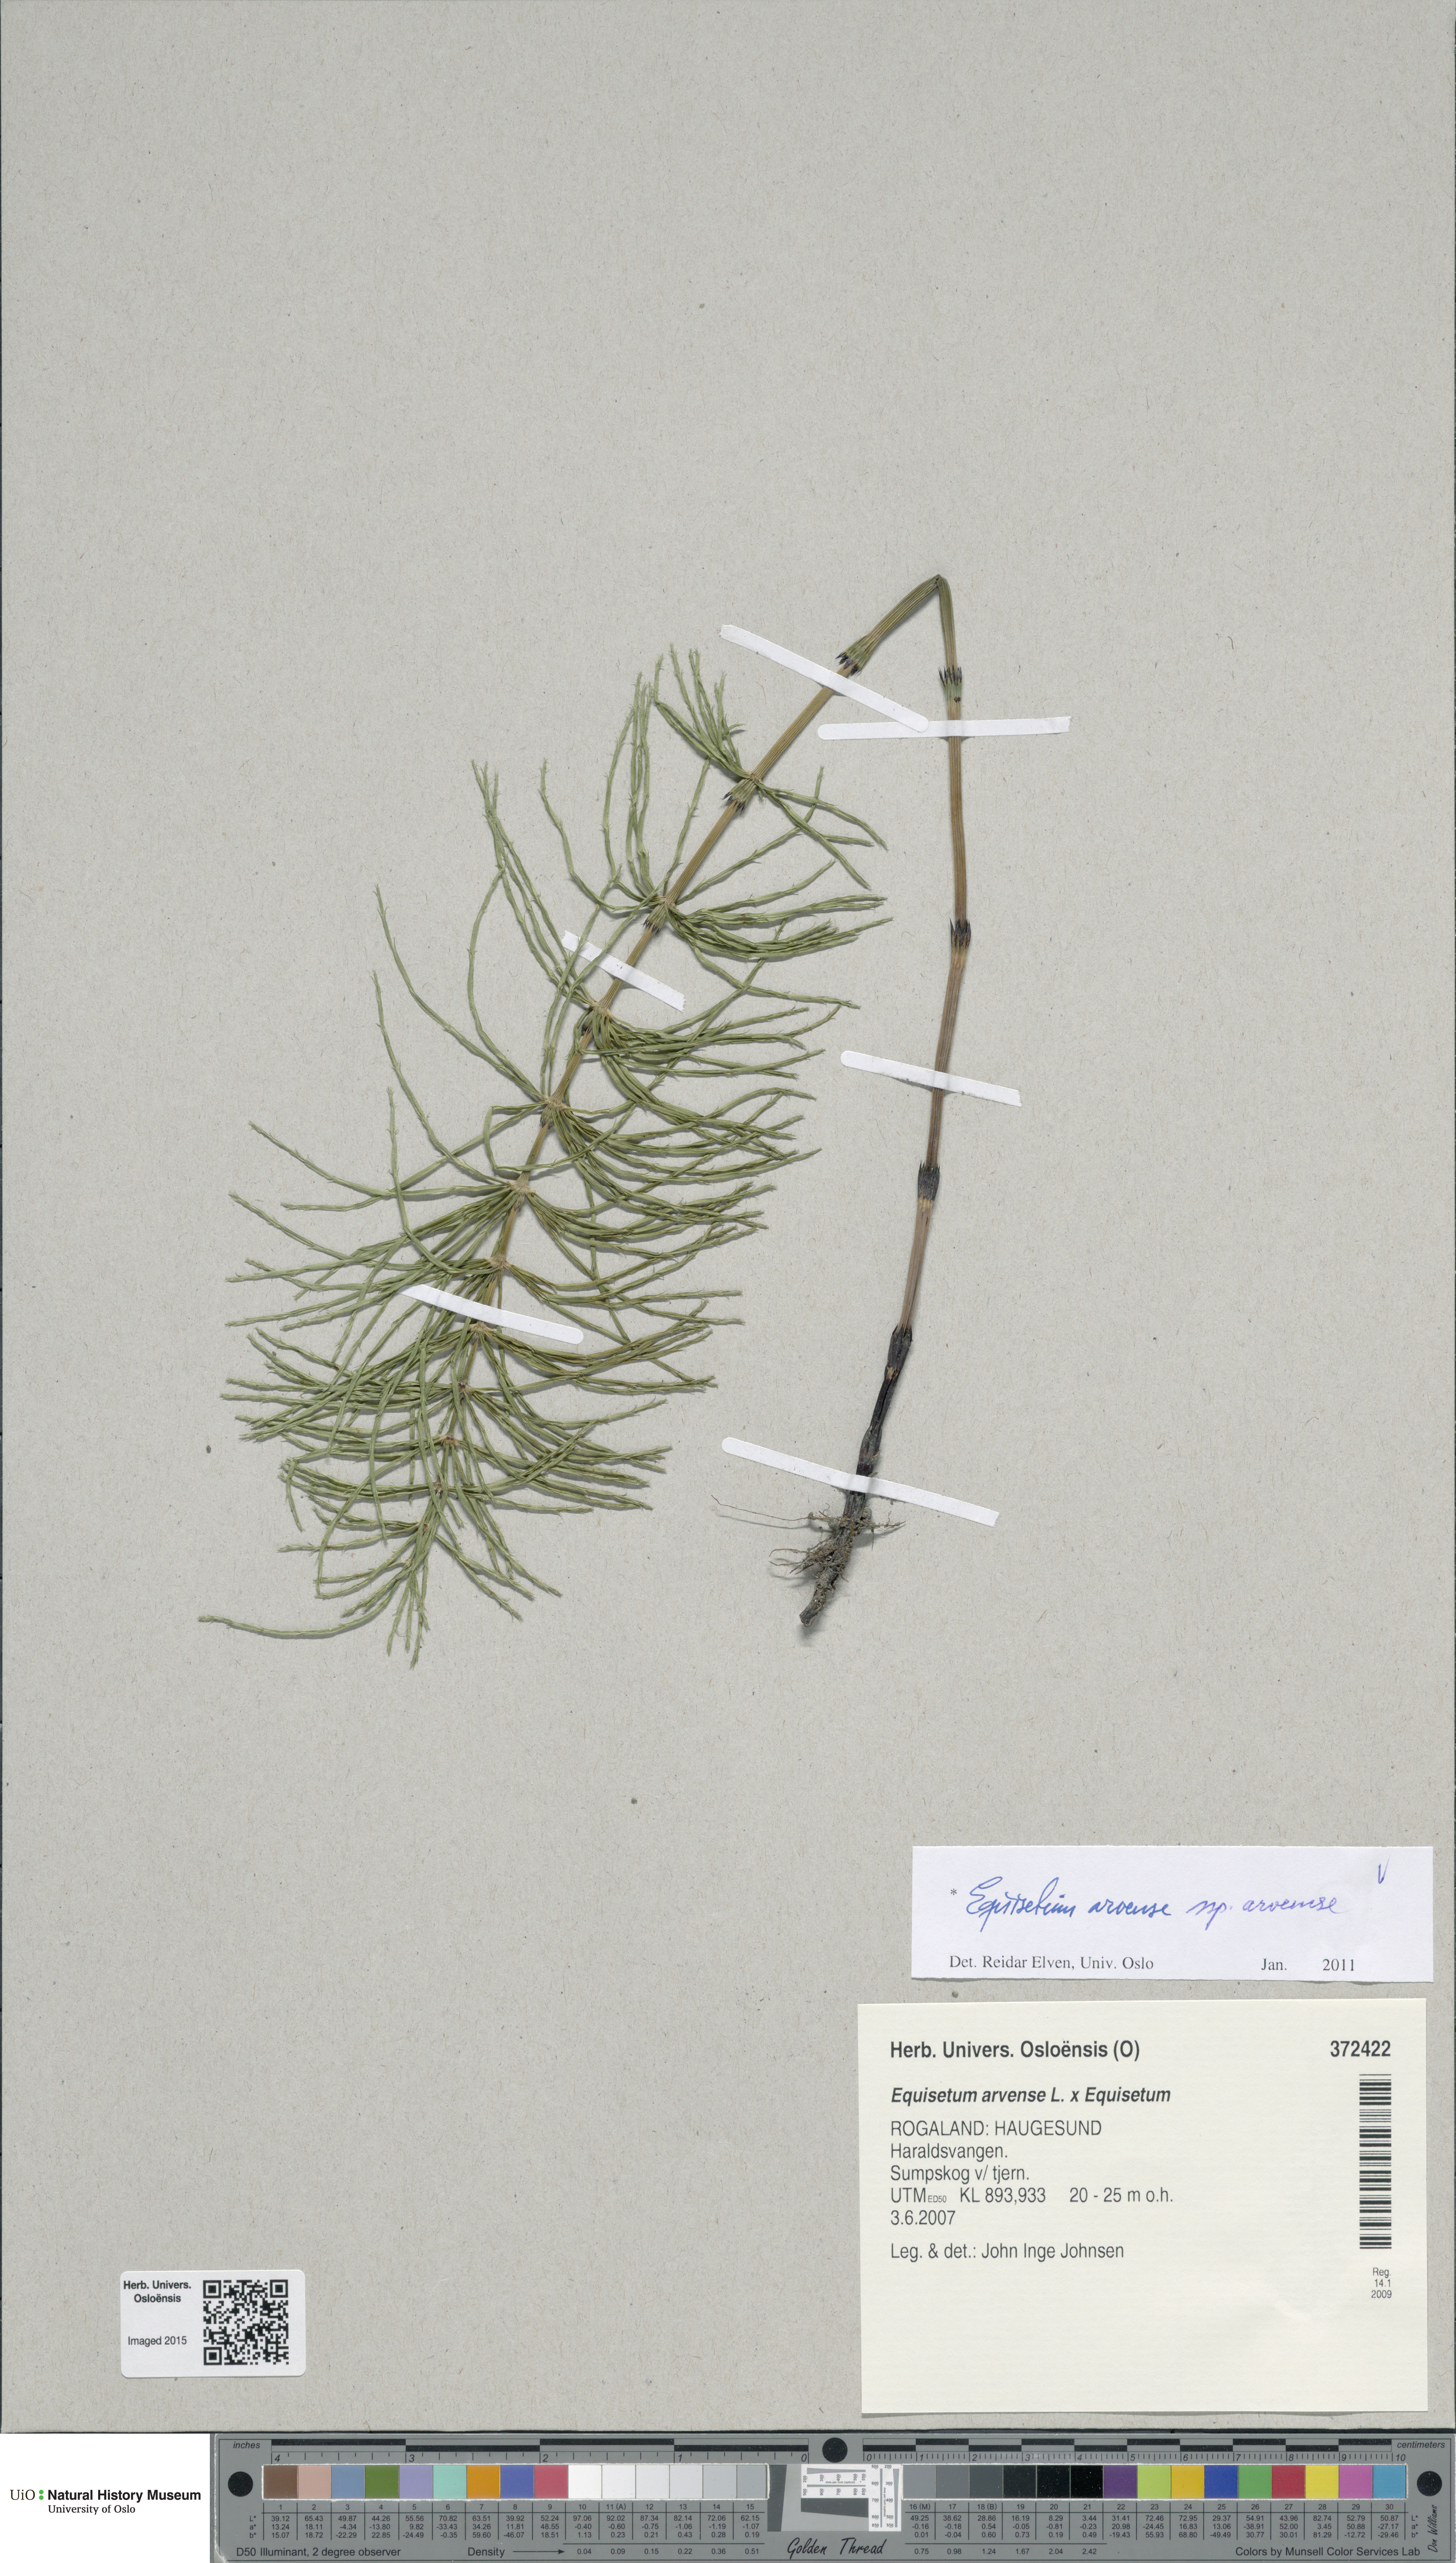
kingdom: Plantae
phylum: Tracheophyta
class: Polypodiopsida
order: Equisetales
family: Equisetaceae
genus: Equisetum
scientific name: Equisetum arvense
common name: Field horsetail
